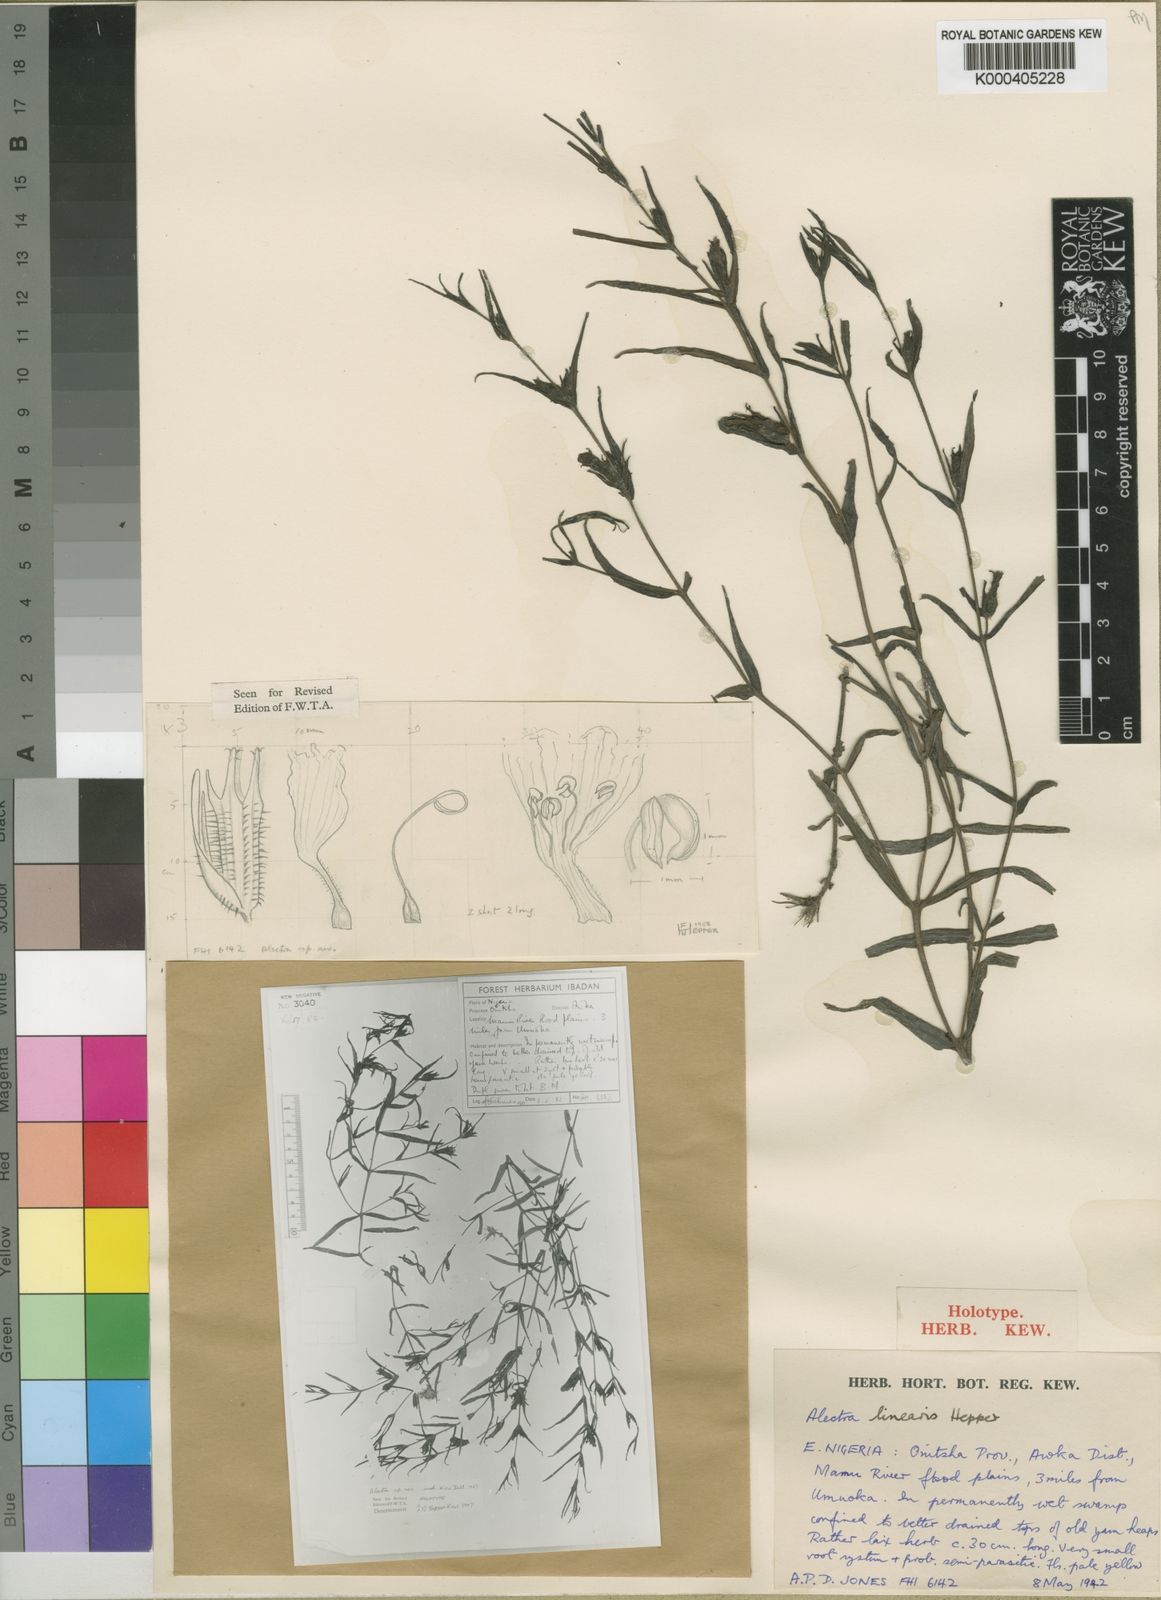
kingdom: Plantae
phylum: Tracheophyta
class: Magnoliopsida
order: Lamiales
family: Orobanchaceae
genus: Alectra
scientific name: Alectra linearis
